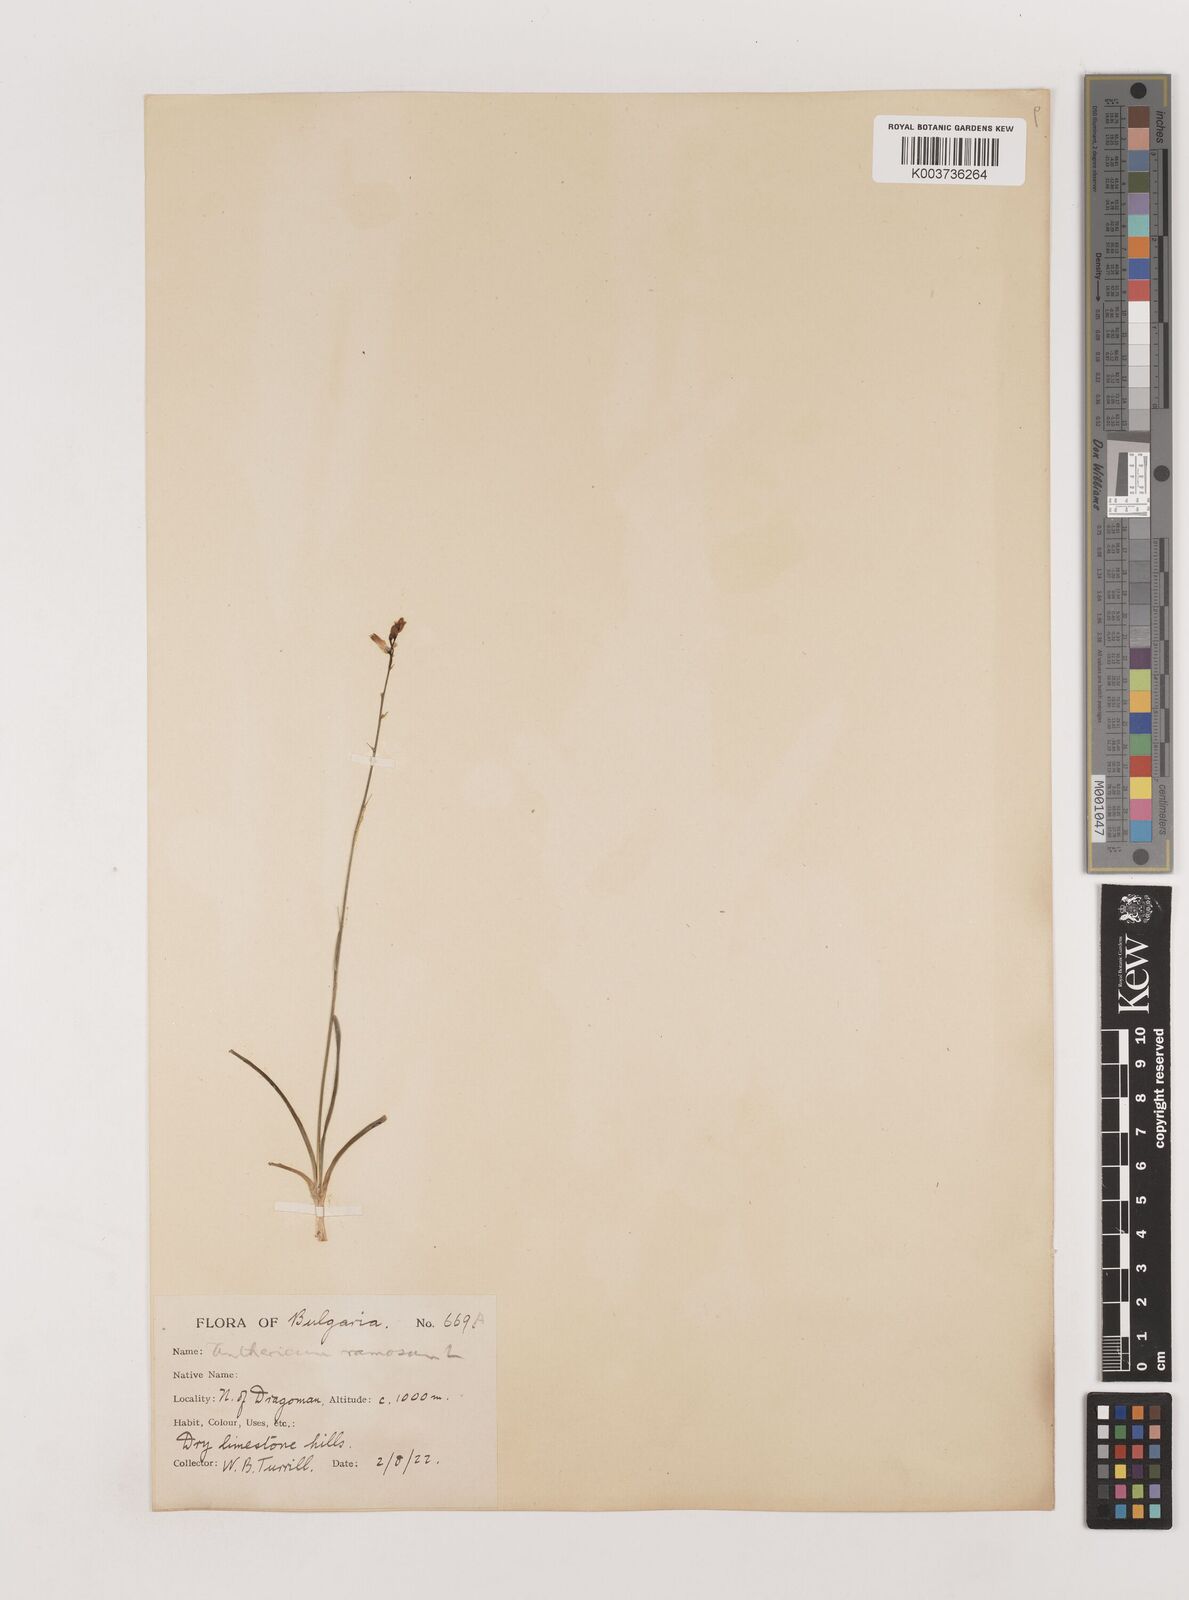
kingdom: Plantae
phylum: Tracheophyta
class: Liliopsida
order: Asparagales
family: Asparagaceae
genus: Anthericum
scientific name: Anthericum ramosum
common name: Branched st. bernard's-lily
